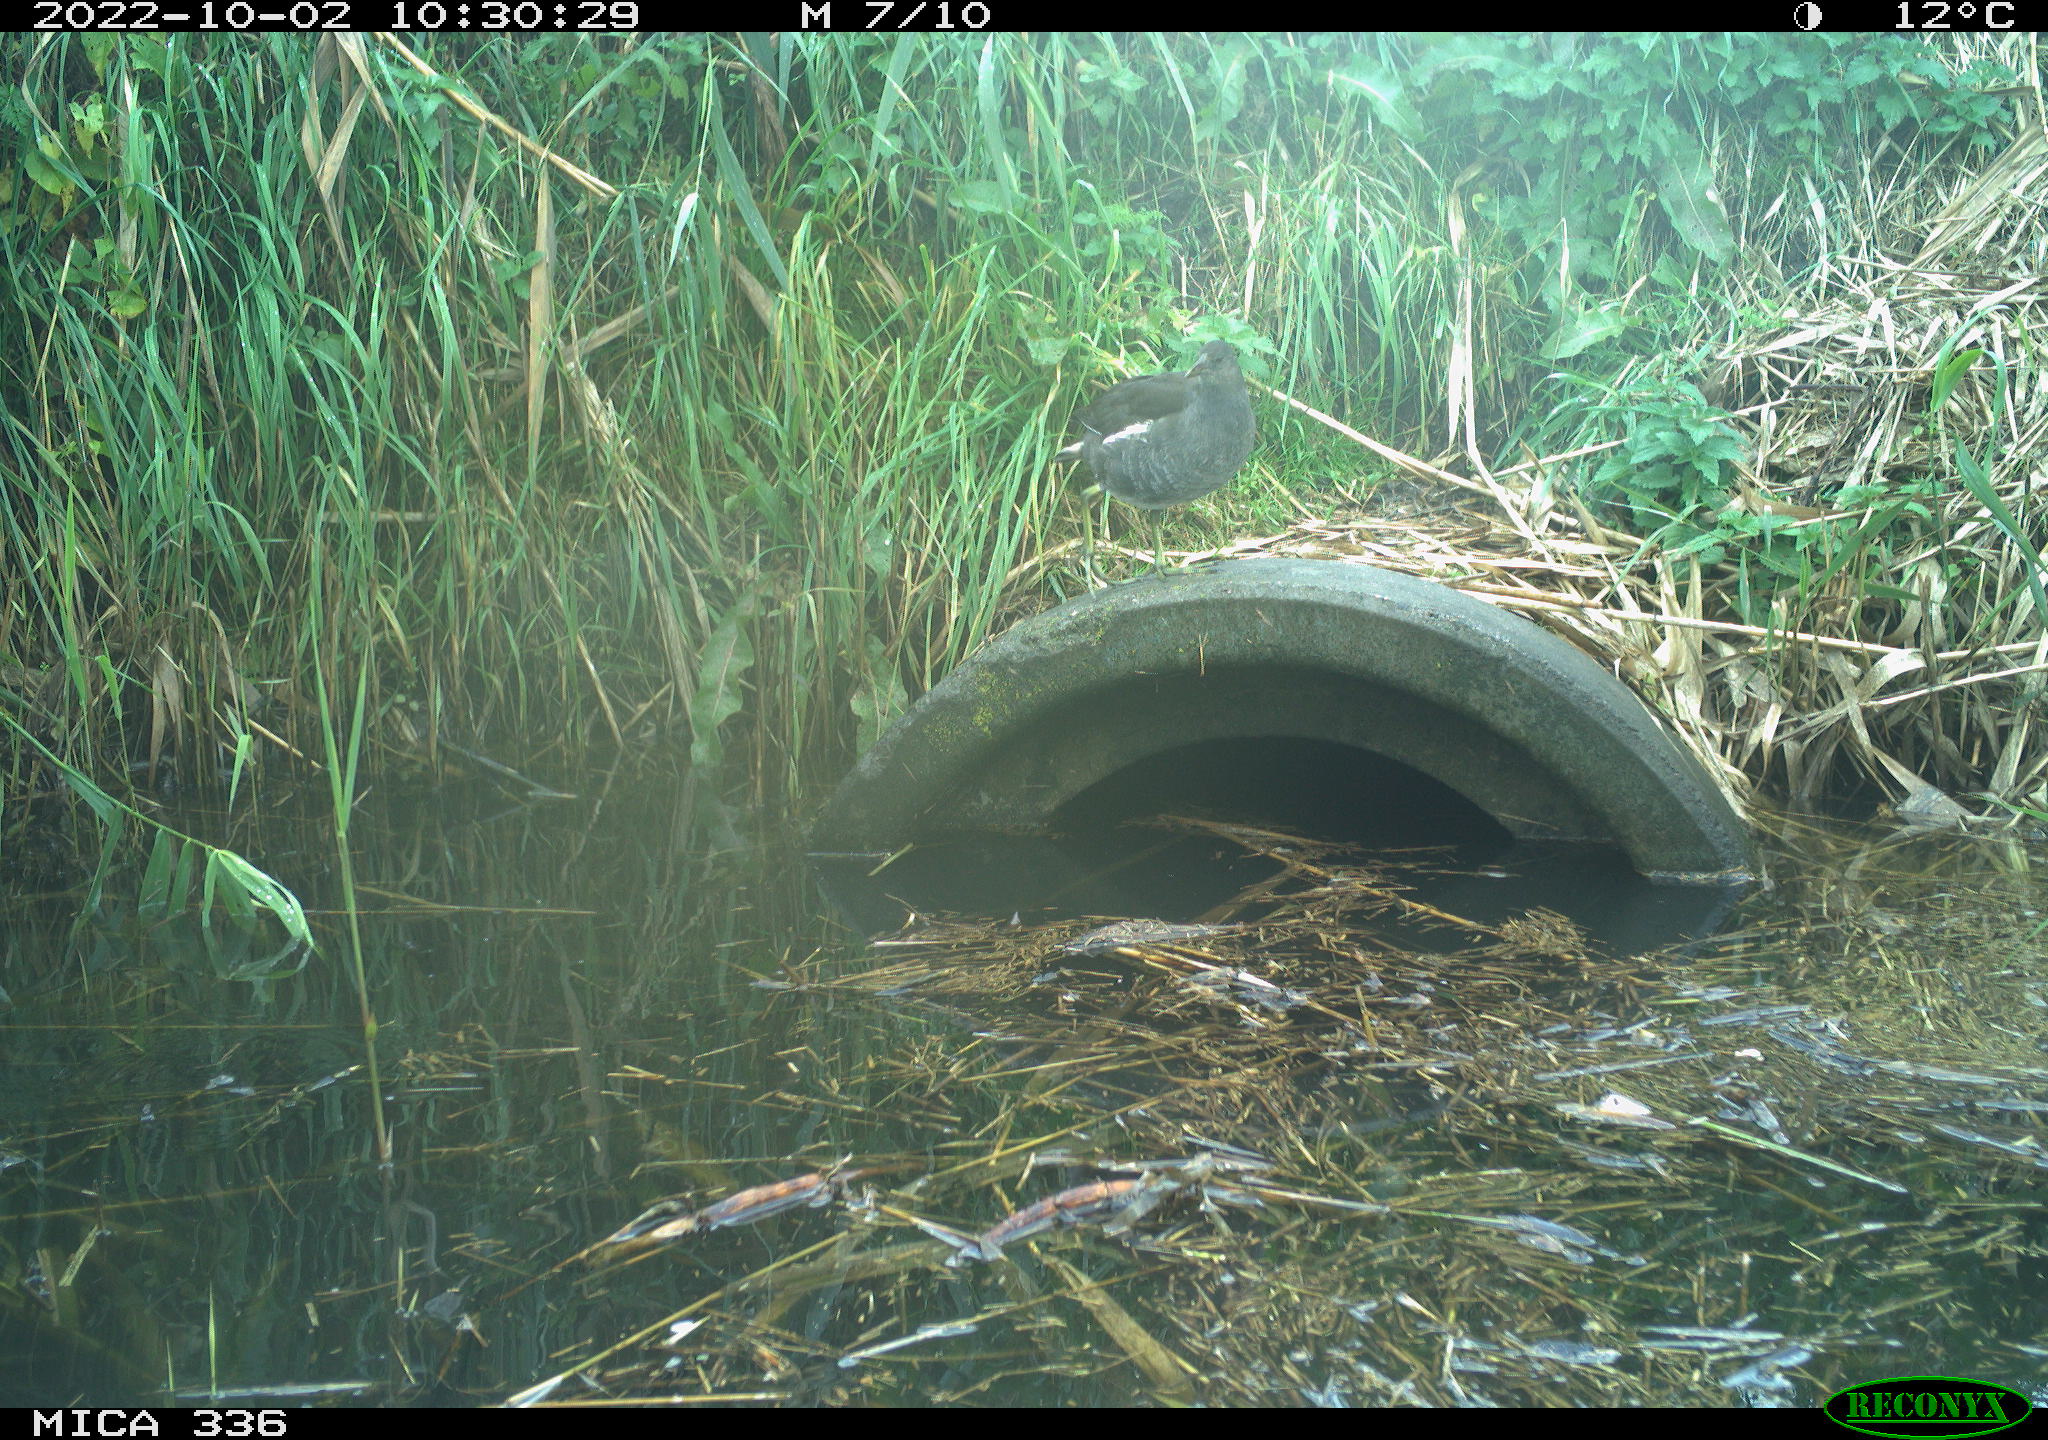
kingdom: Animalia
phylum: Chordata
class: Aves
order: Gruiformes
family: Rallidae
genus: Gallinula
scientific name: Gallinula chloropus
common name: Common moorhen
